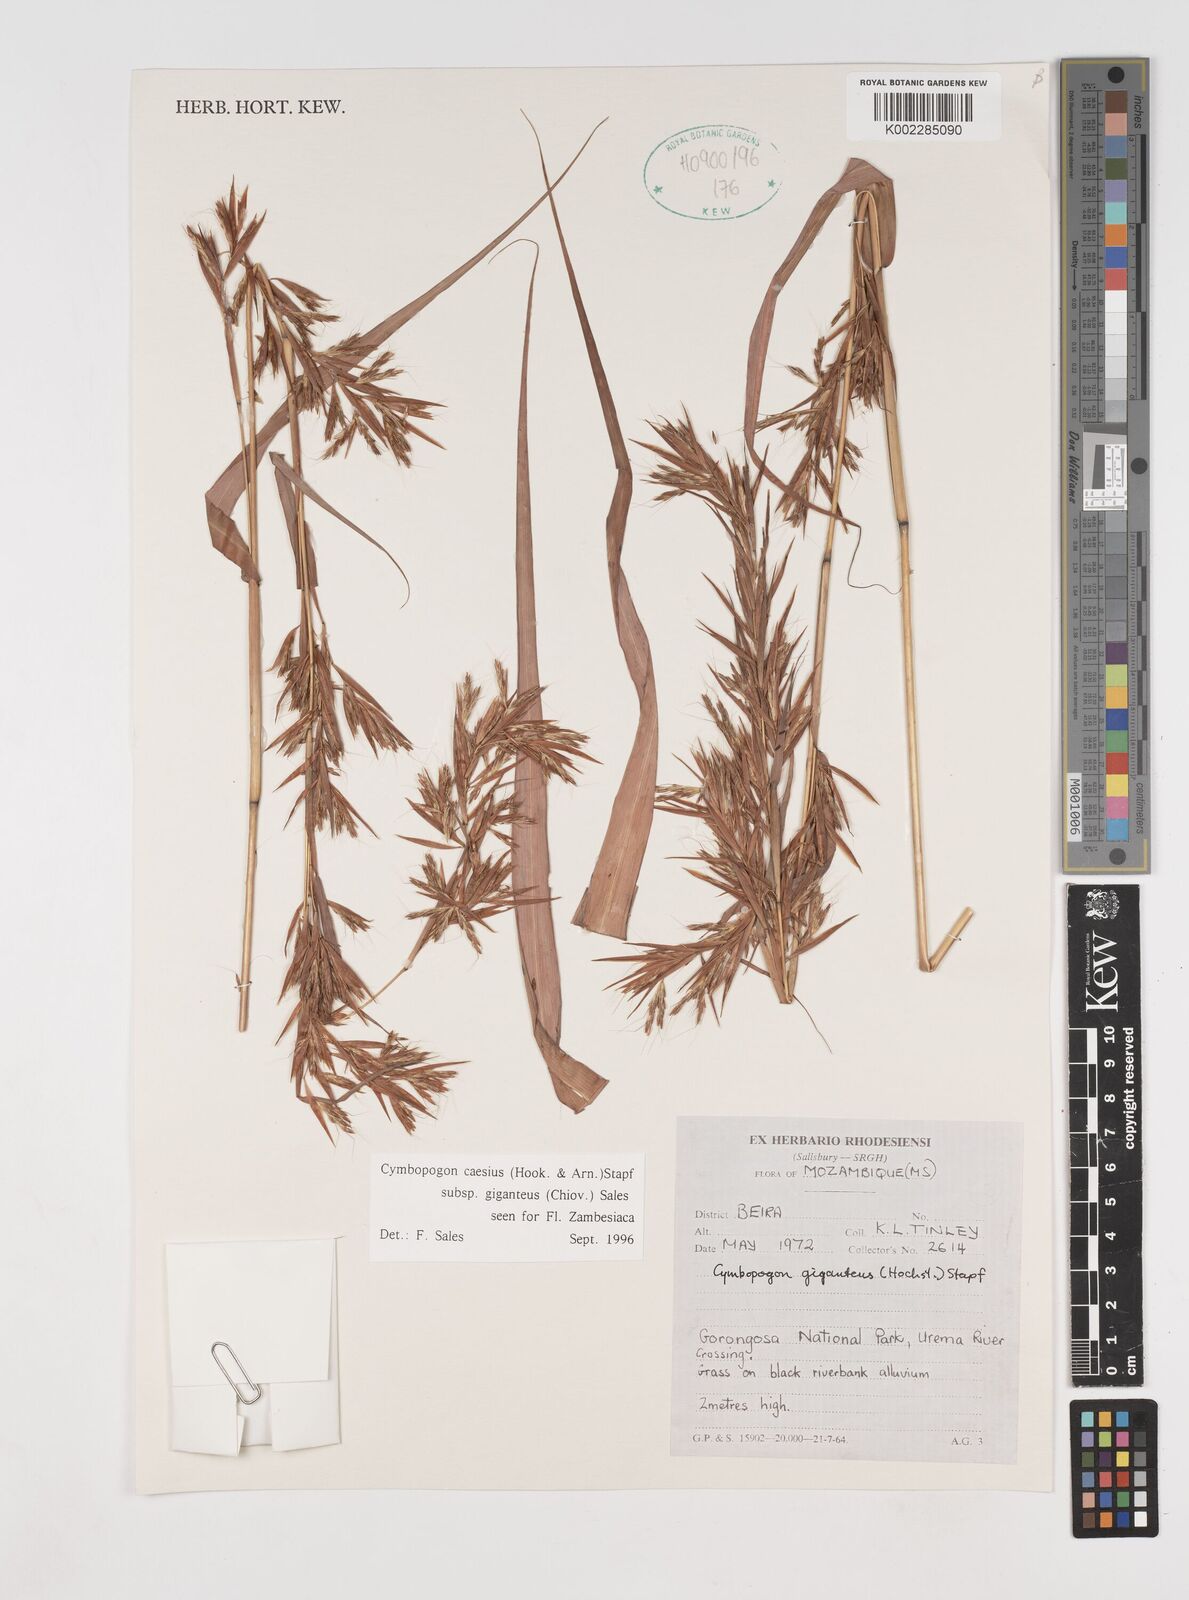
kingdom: Plantae
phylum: Tracheophyta
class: Liliopsida
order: Poales
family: Poaceae
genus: Cymbopogon
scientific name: Cymbopogon giganteus
